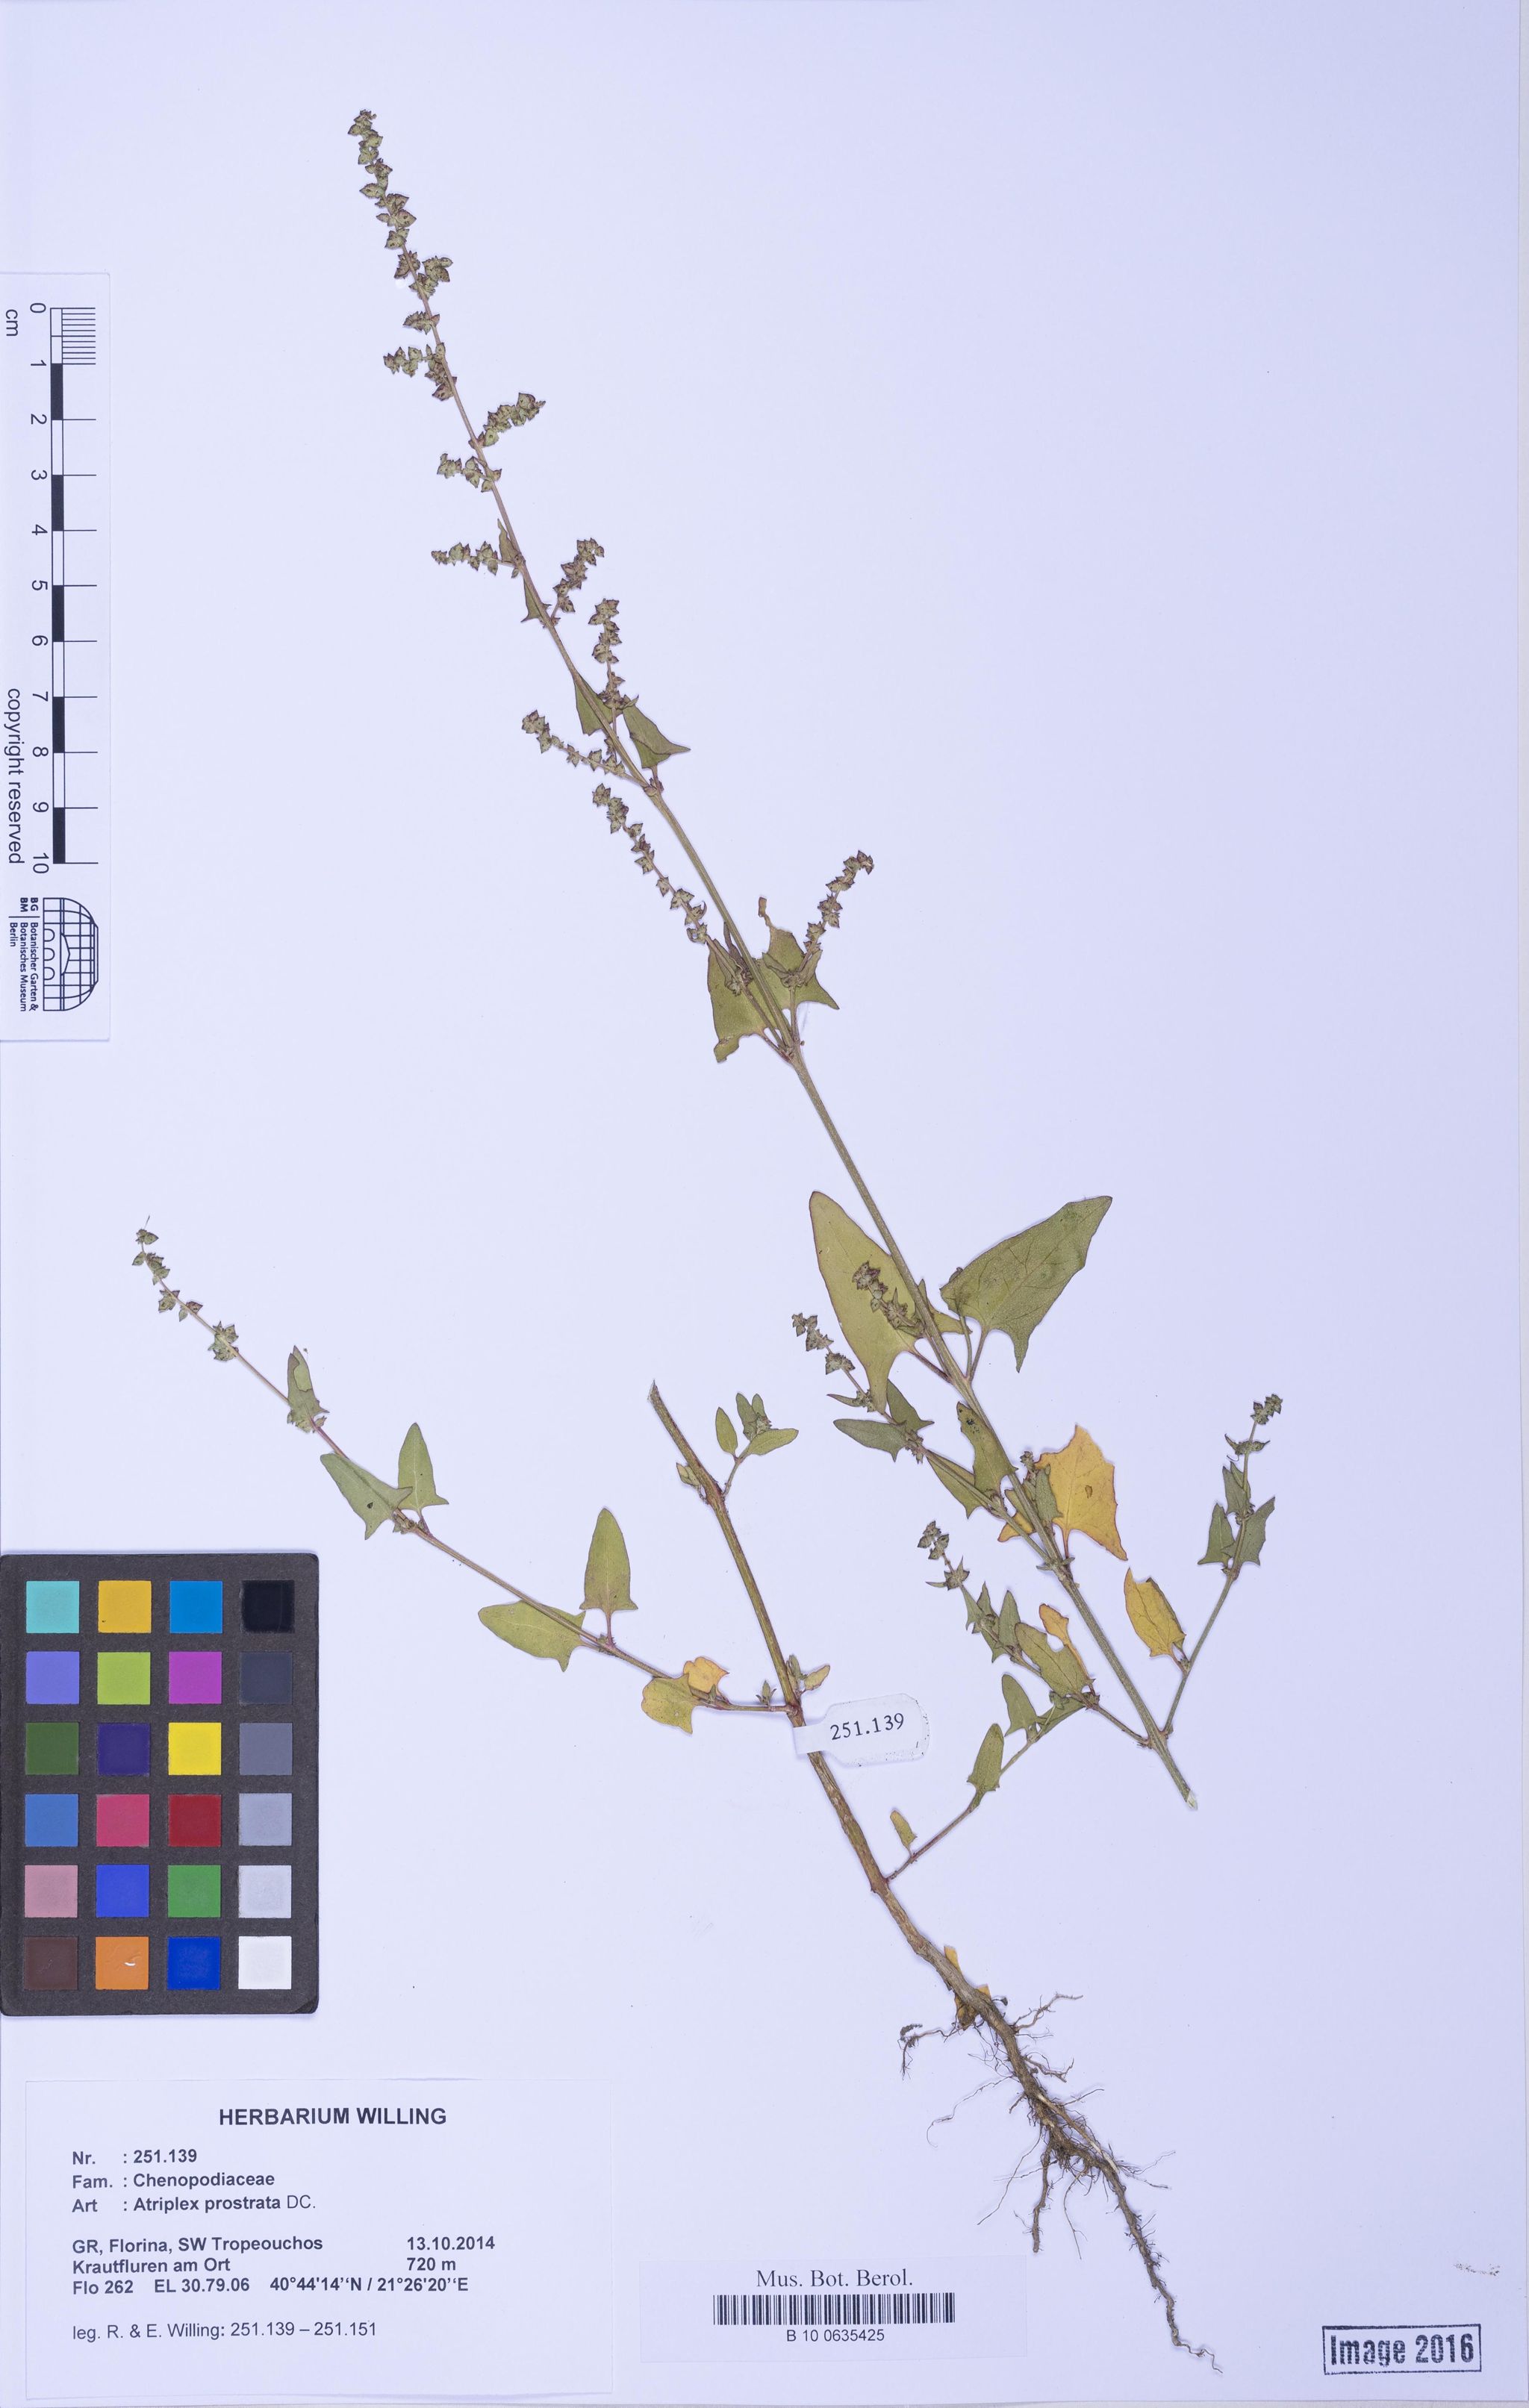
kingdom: Plantae
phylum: Tracheophyta
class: Magnoliopsida
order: Caryophyllales
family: Amaranthaceae
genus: Atriplex
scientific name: Atriplex prostrata
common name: Spear-leaved orache
